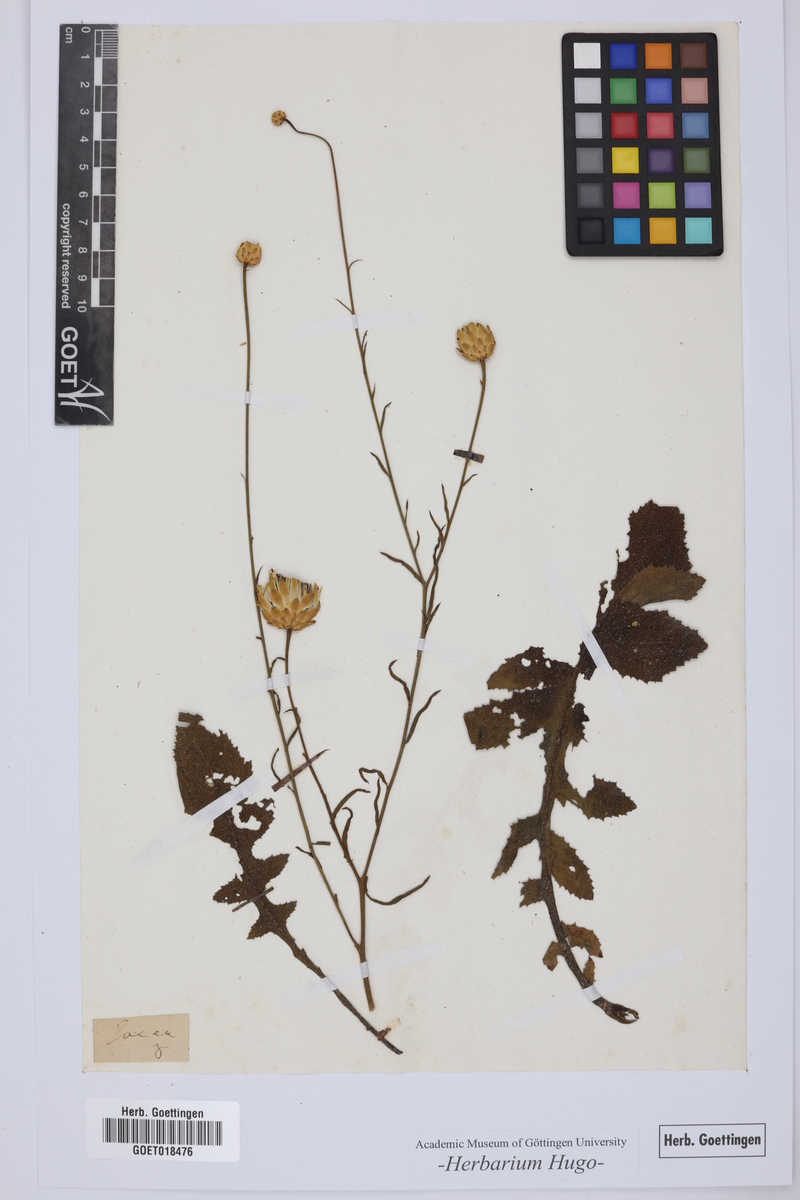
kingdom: Plantae
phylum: Tracheophyta
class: Magnoliopsida
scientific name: Magnoliopsida
